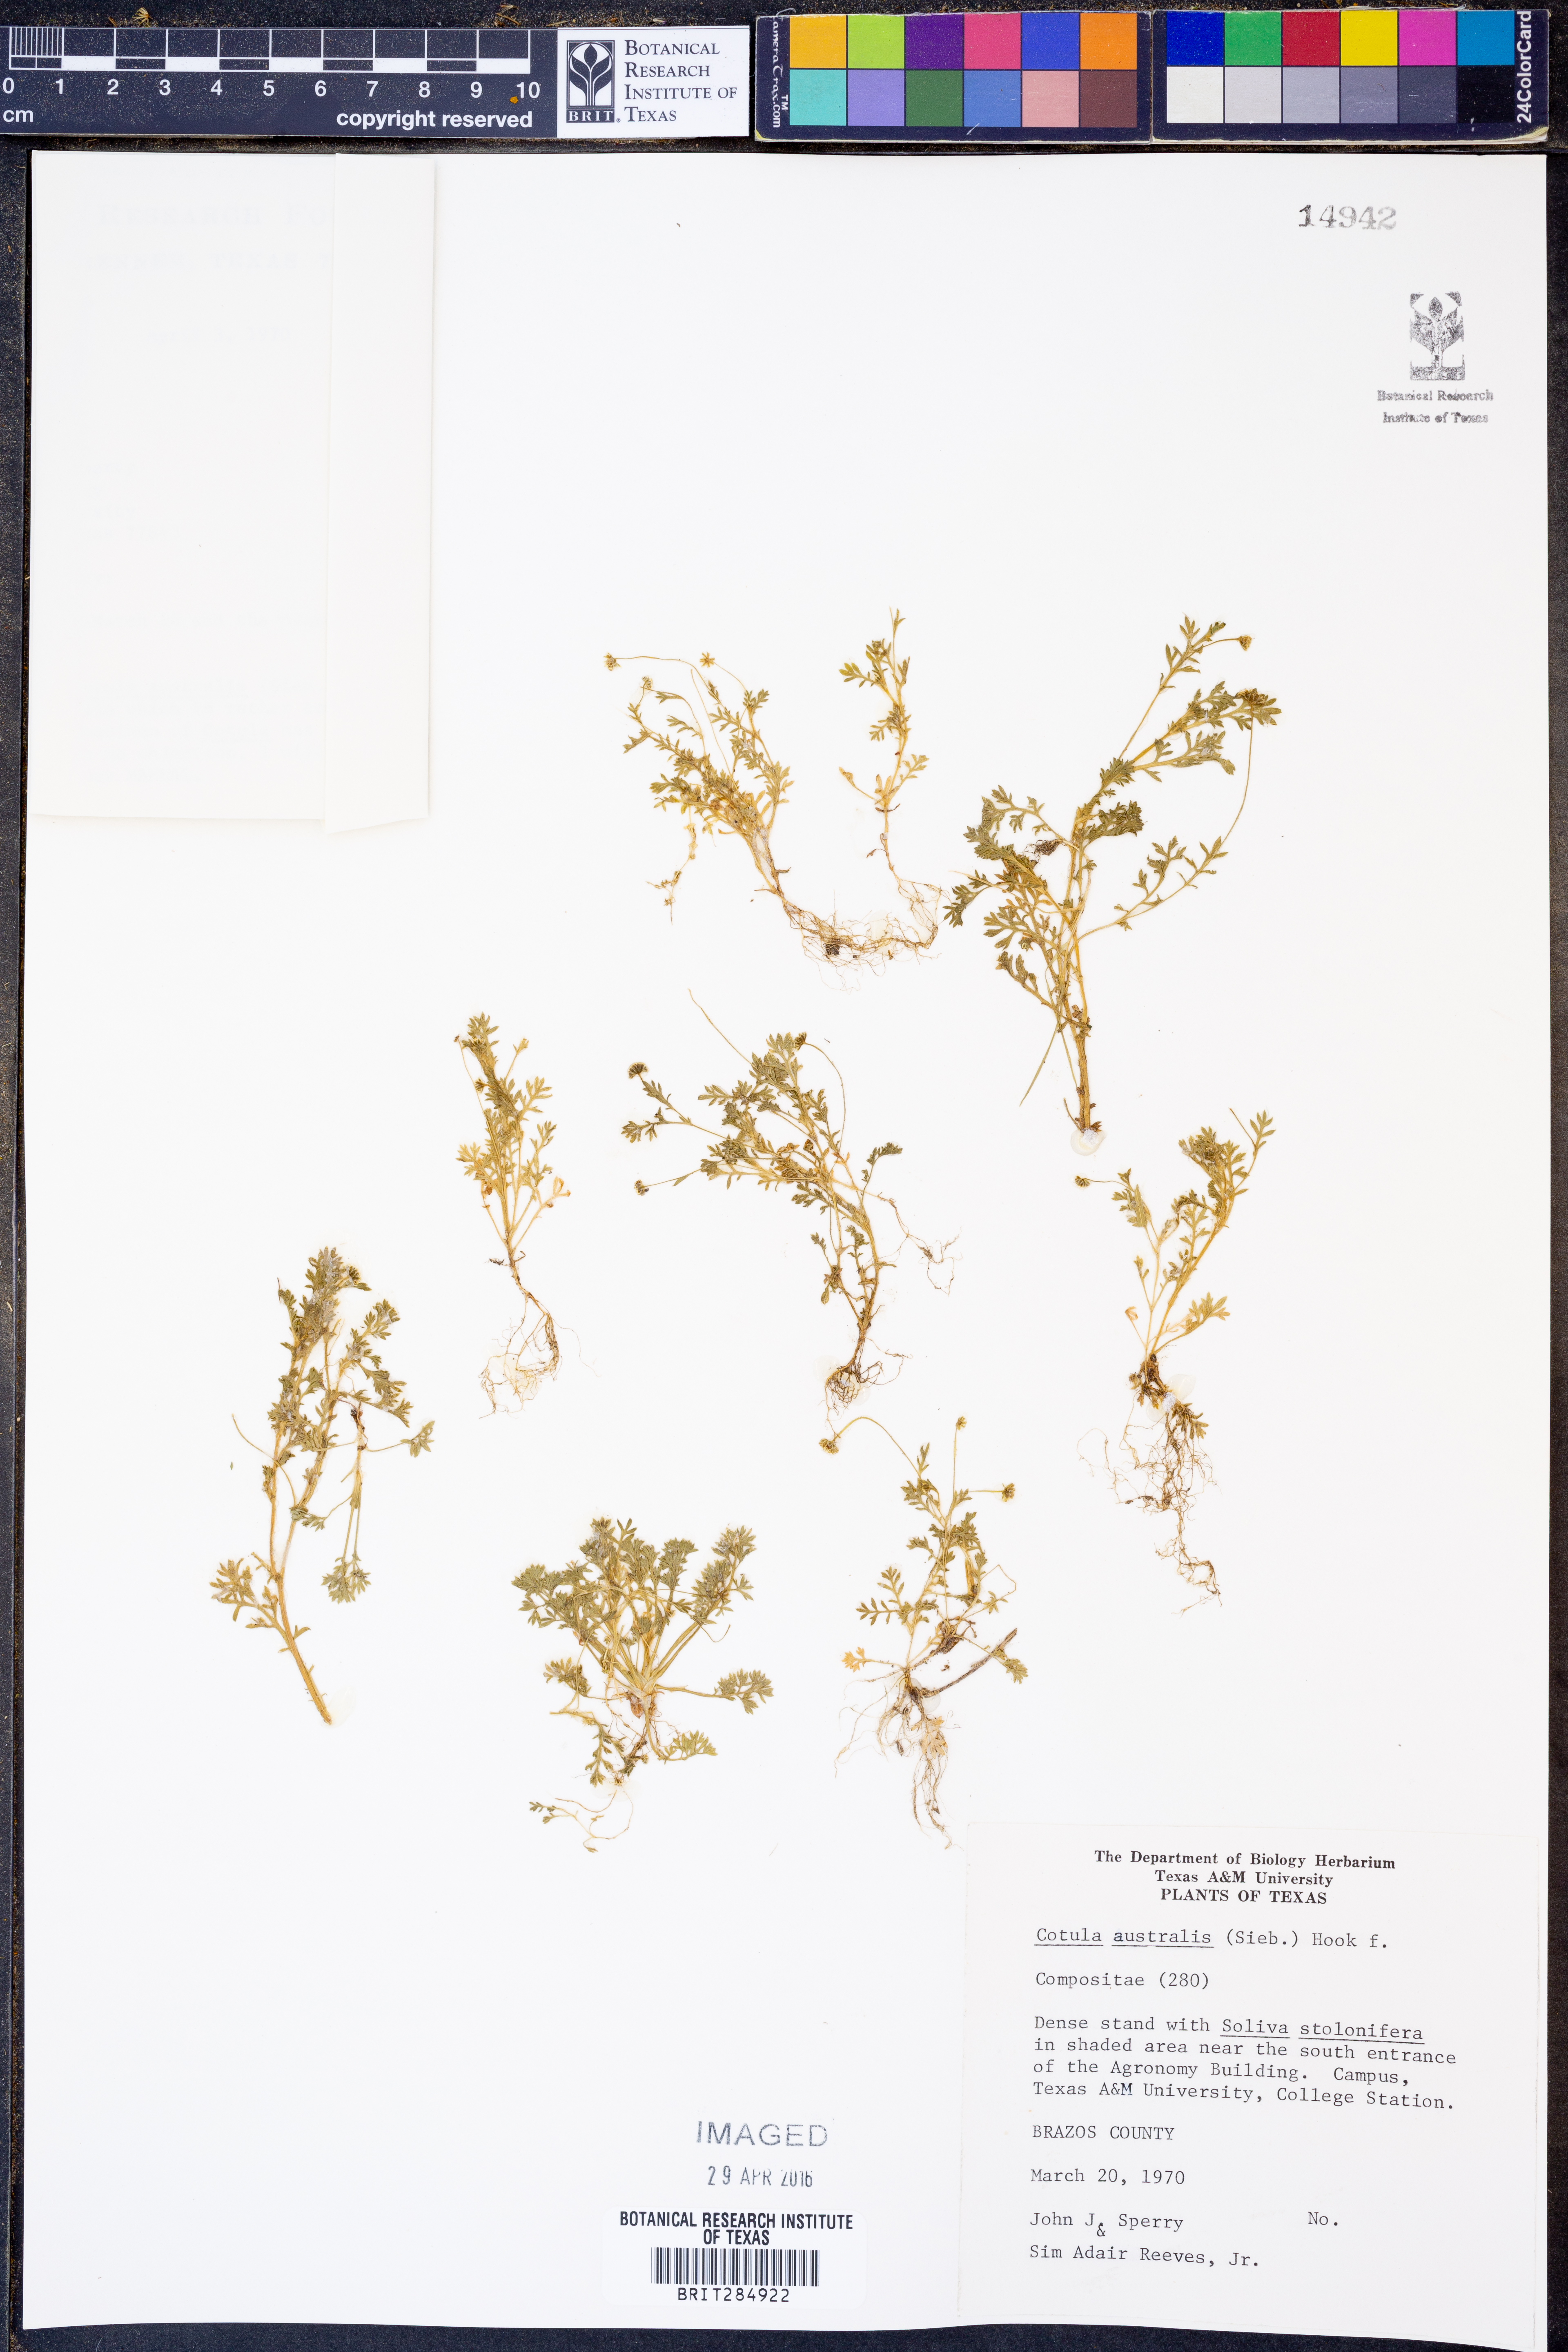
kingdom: Plantae
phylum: Tracheophyta
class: Magnoliopsida
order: Asterales
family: Asteraceae
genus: Cotula
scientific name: Cotula australis
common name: Australian waterbuttons
